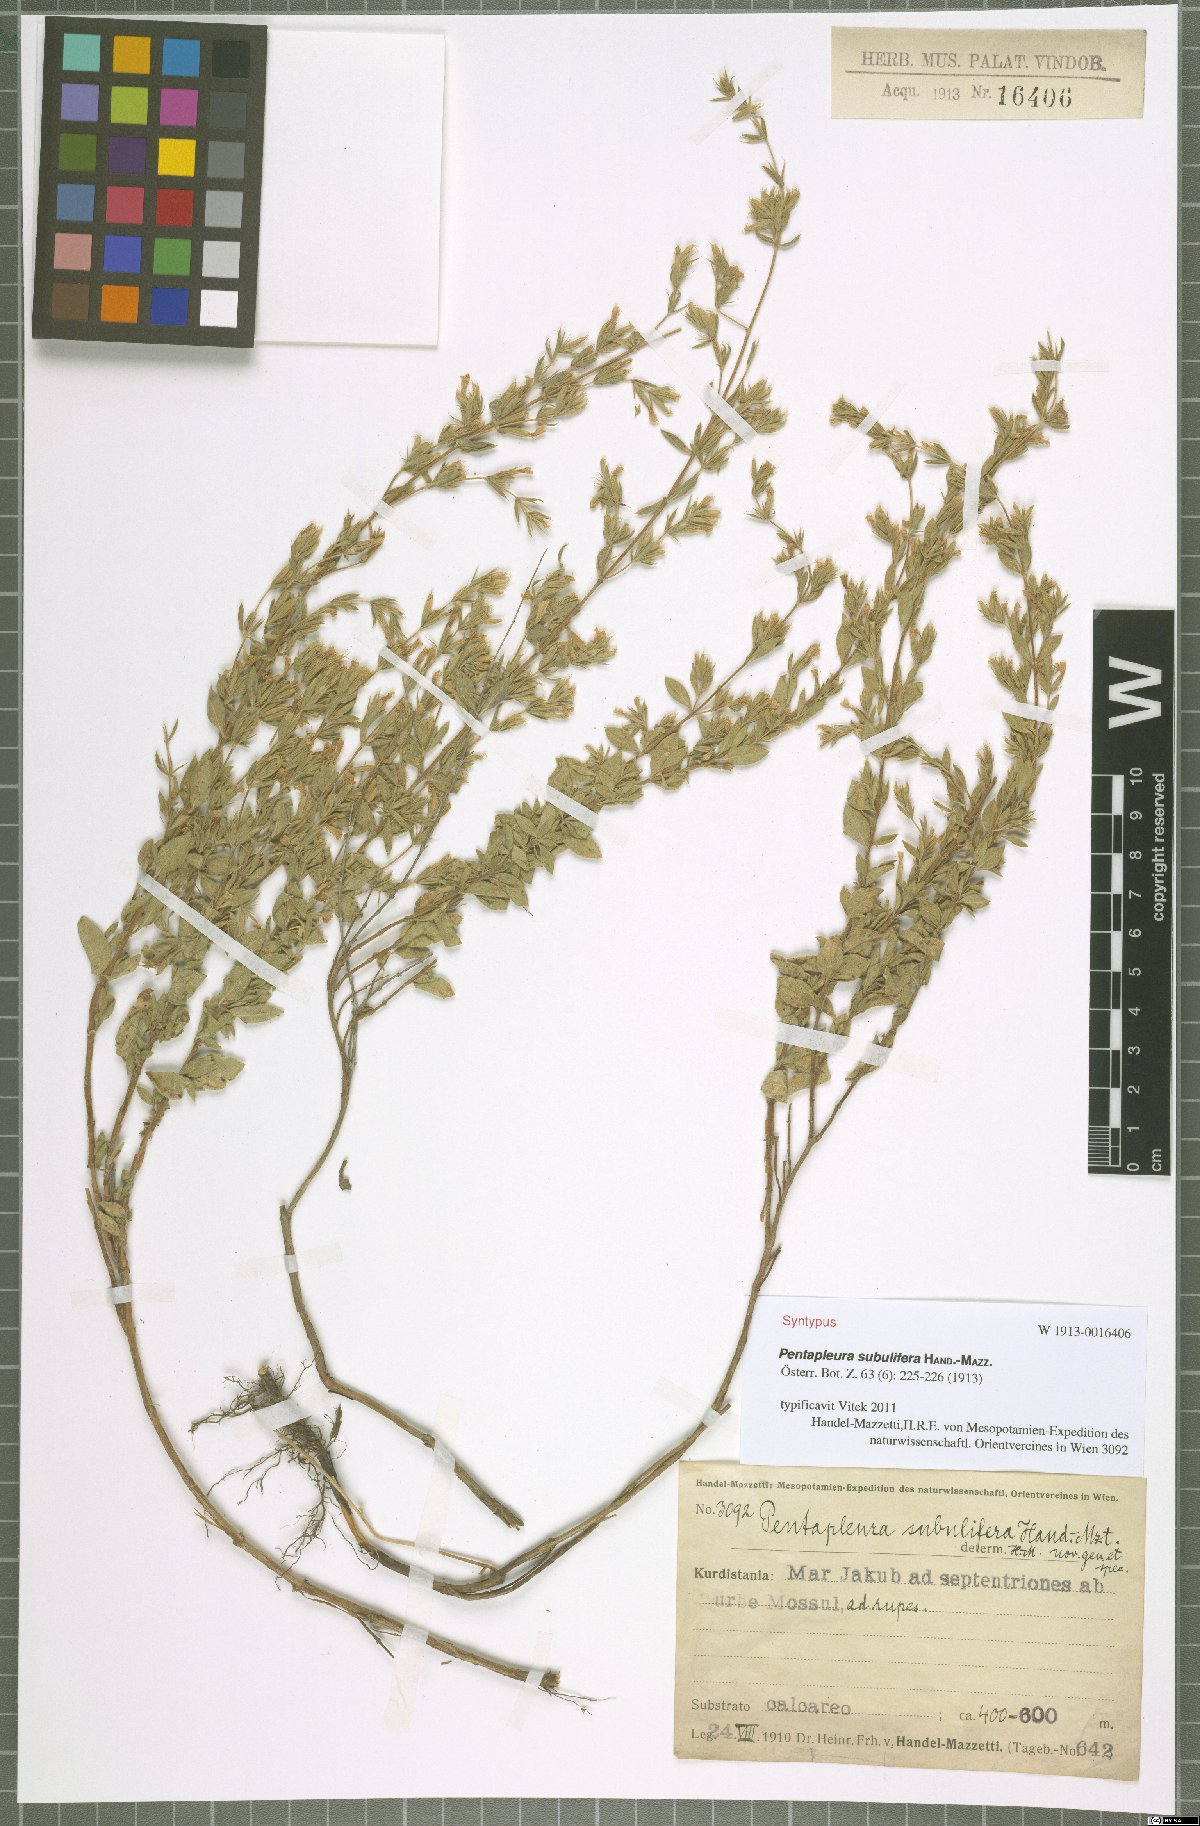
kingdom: Plantae
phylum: Tracheophyta
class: Magnoliopsida
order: Lamiales
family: Lamiaceae
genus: Pentapleura
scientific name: Pentapleura subulifera
